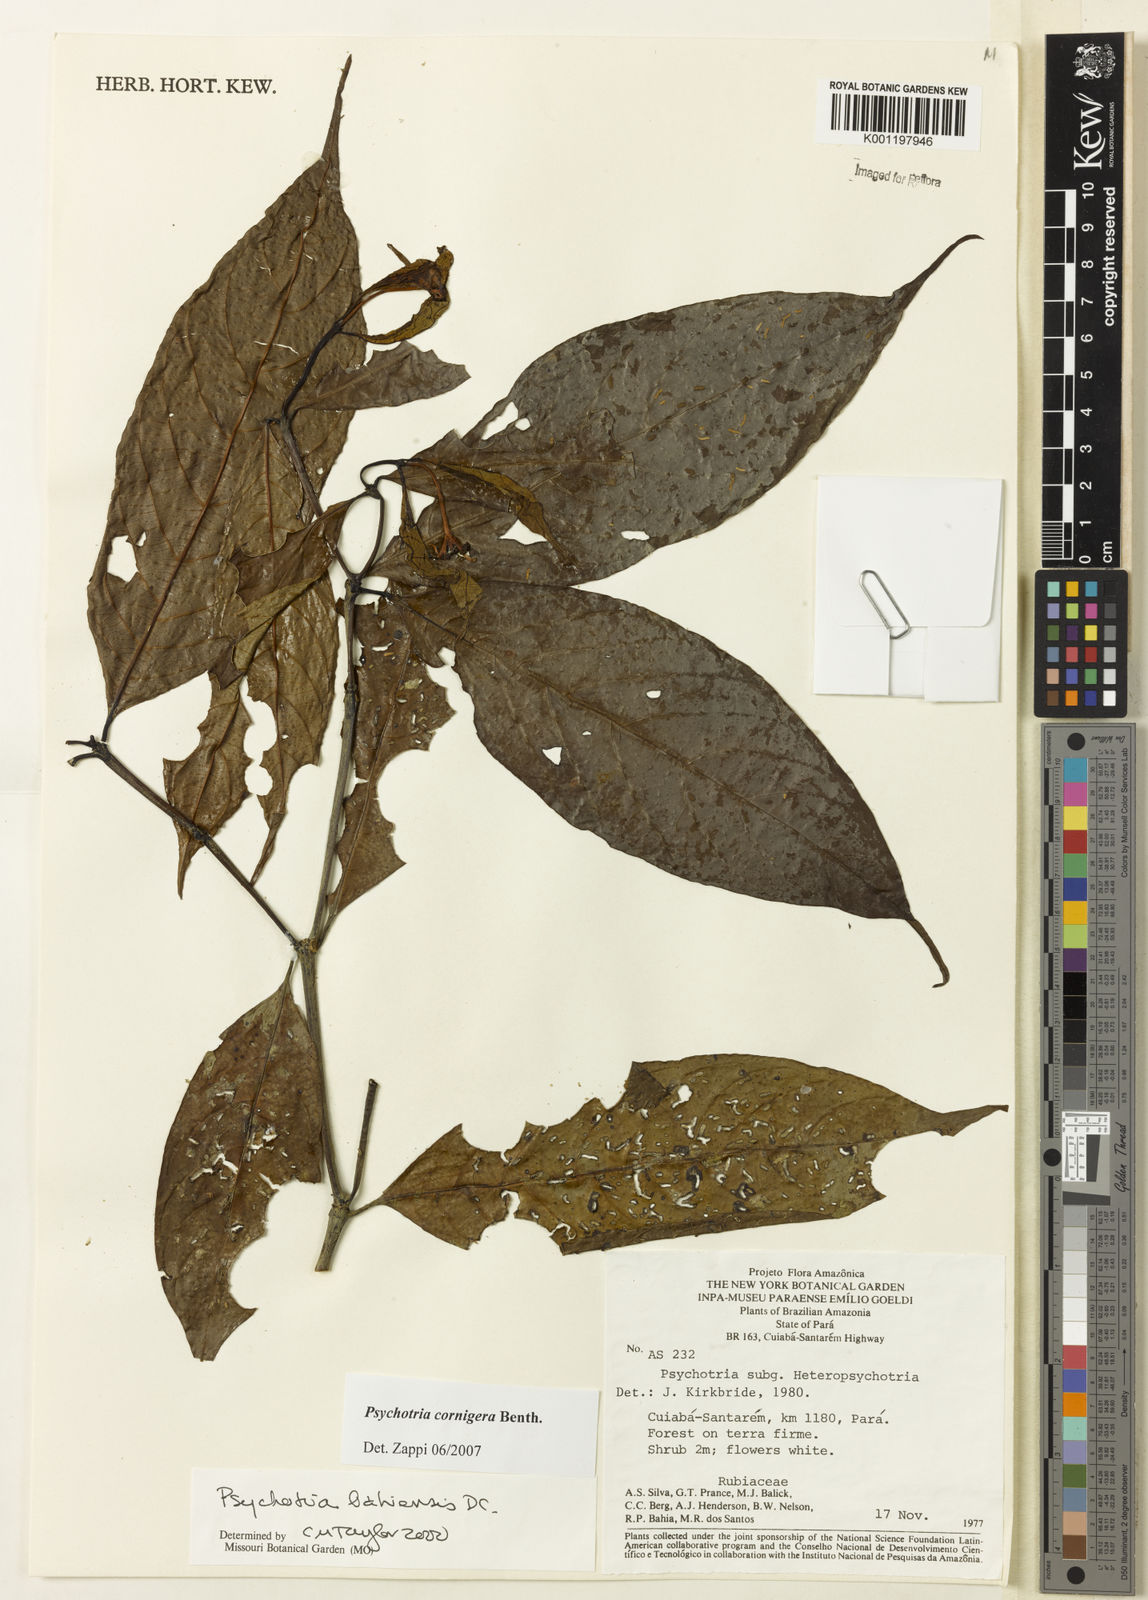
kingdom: Plantae
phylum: Tracheophyta
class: Magnoliopsida
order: Gentianales
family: Rubiaceae
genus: Psychotria
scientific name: Psychotria bahiensis
